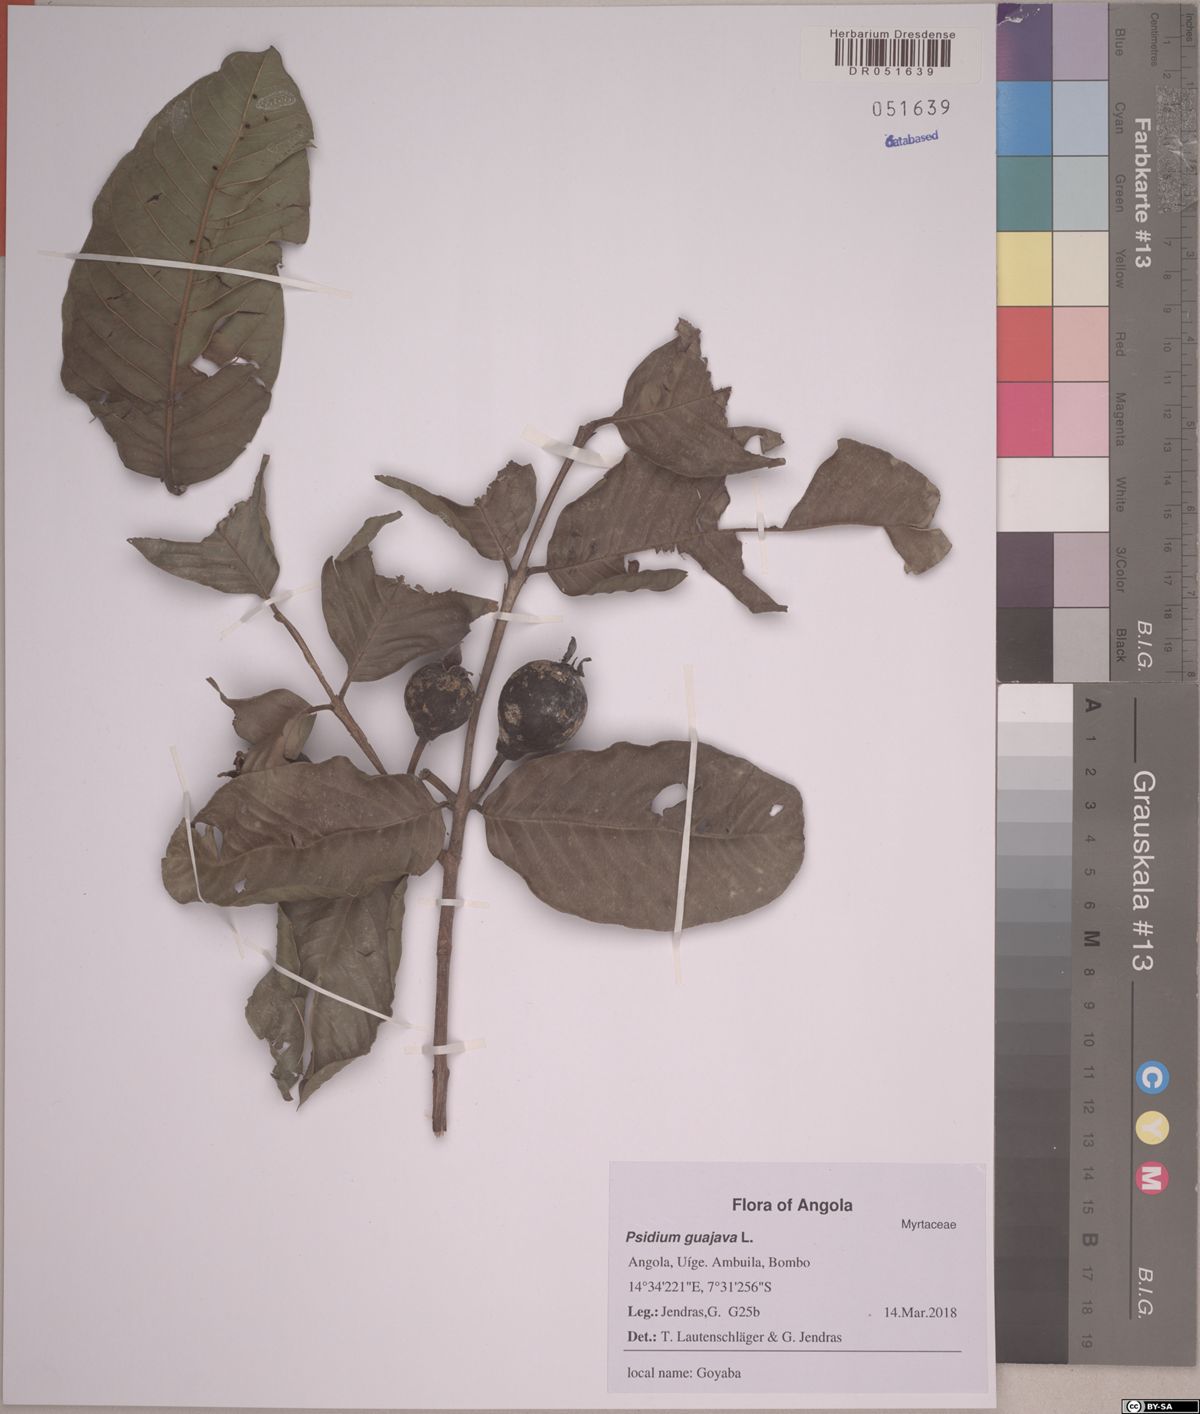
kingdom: Plantae
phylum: Tracheophyta
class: Magnoliopsida
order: Myrtales
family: Myrtaceae
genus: Psidium
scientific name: Psidium guajava
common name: Guava
